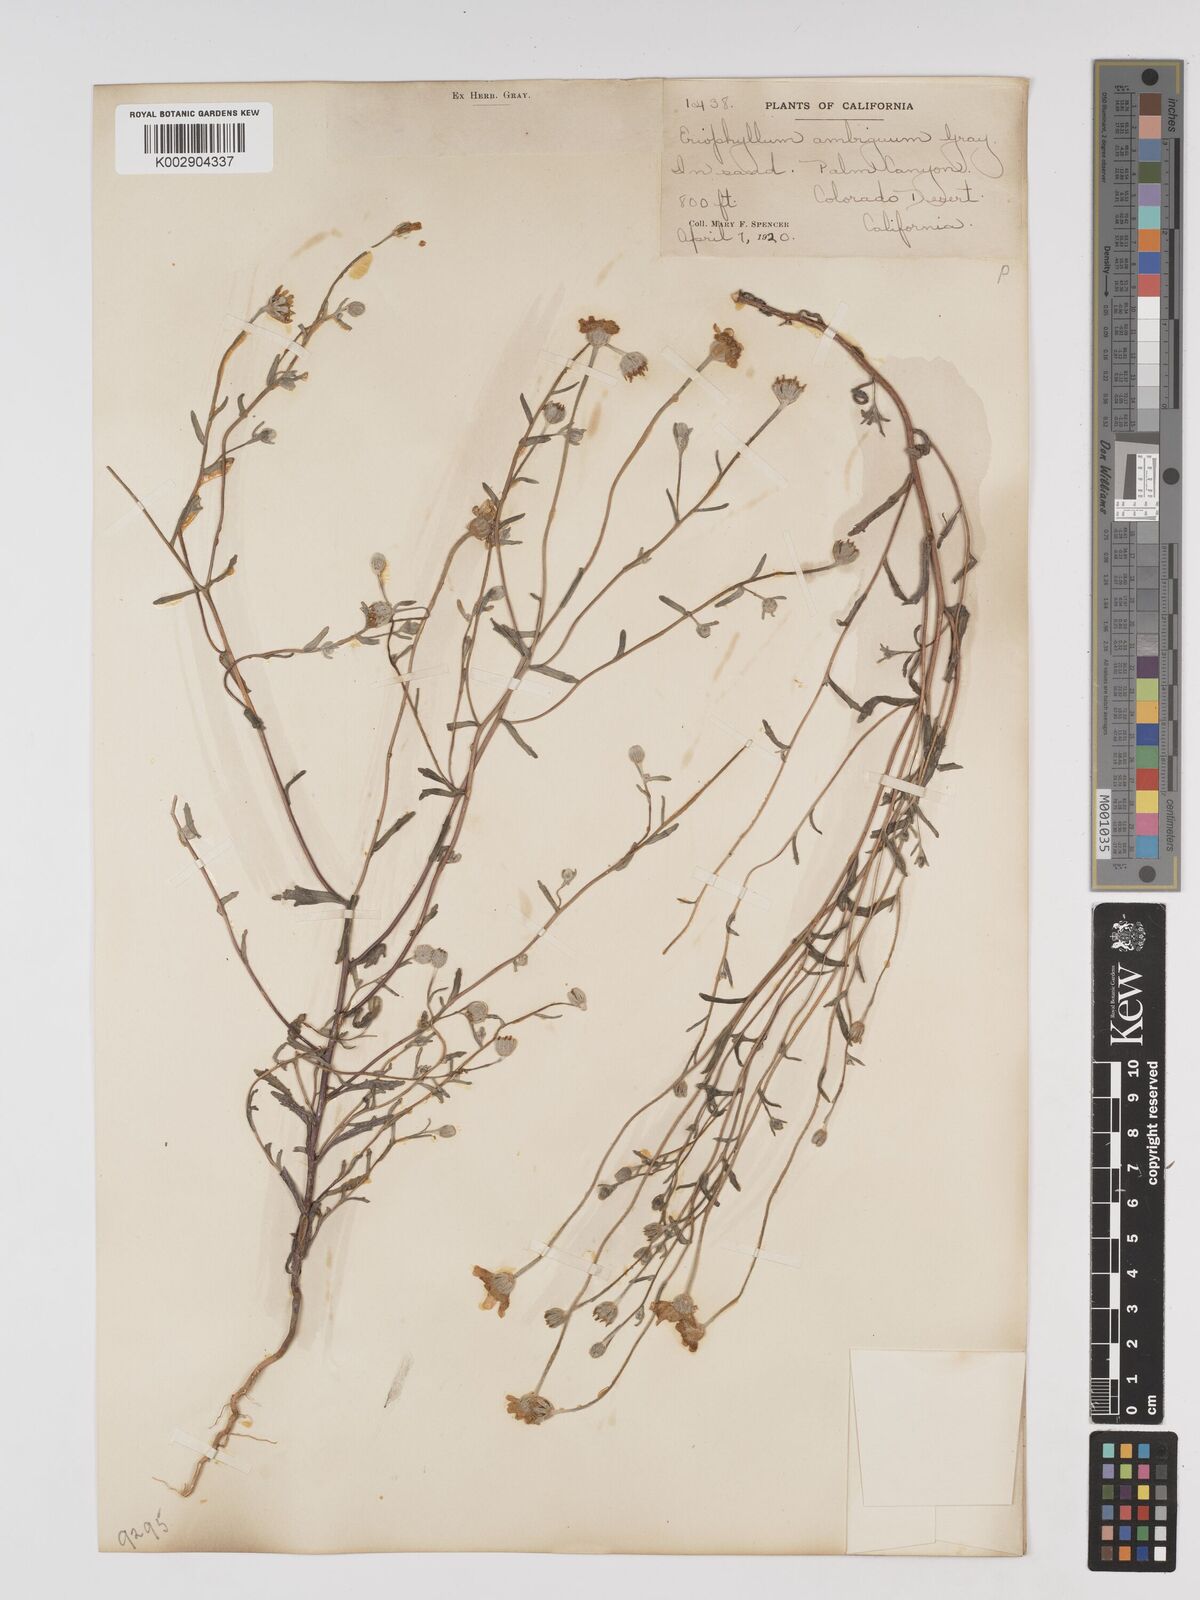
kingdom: Plantae
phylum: Tracheophyta
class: Magnoliopsida
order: Asterales
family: Asteraceae
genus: Eriophyllum
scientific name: Eriophyllum ambiguum
